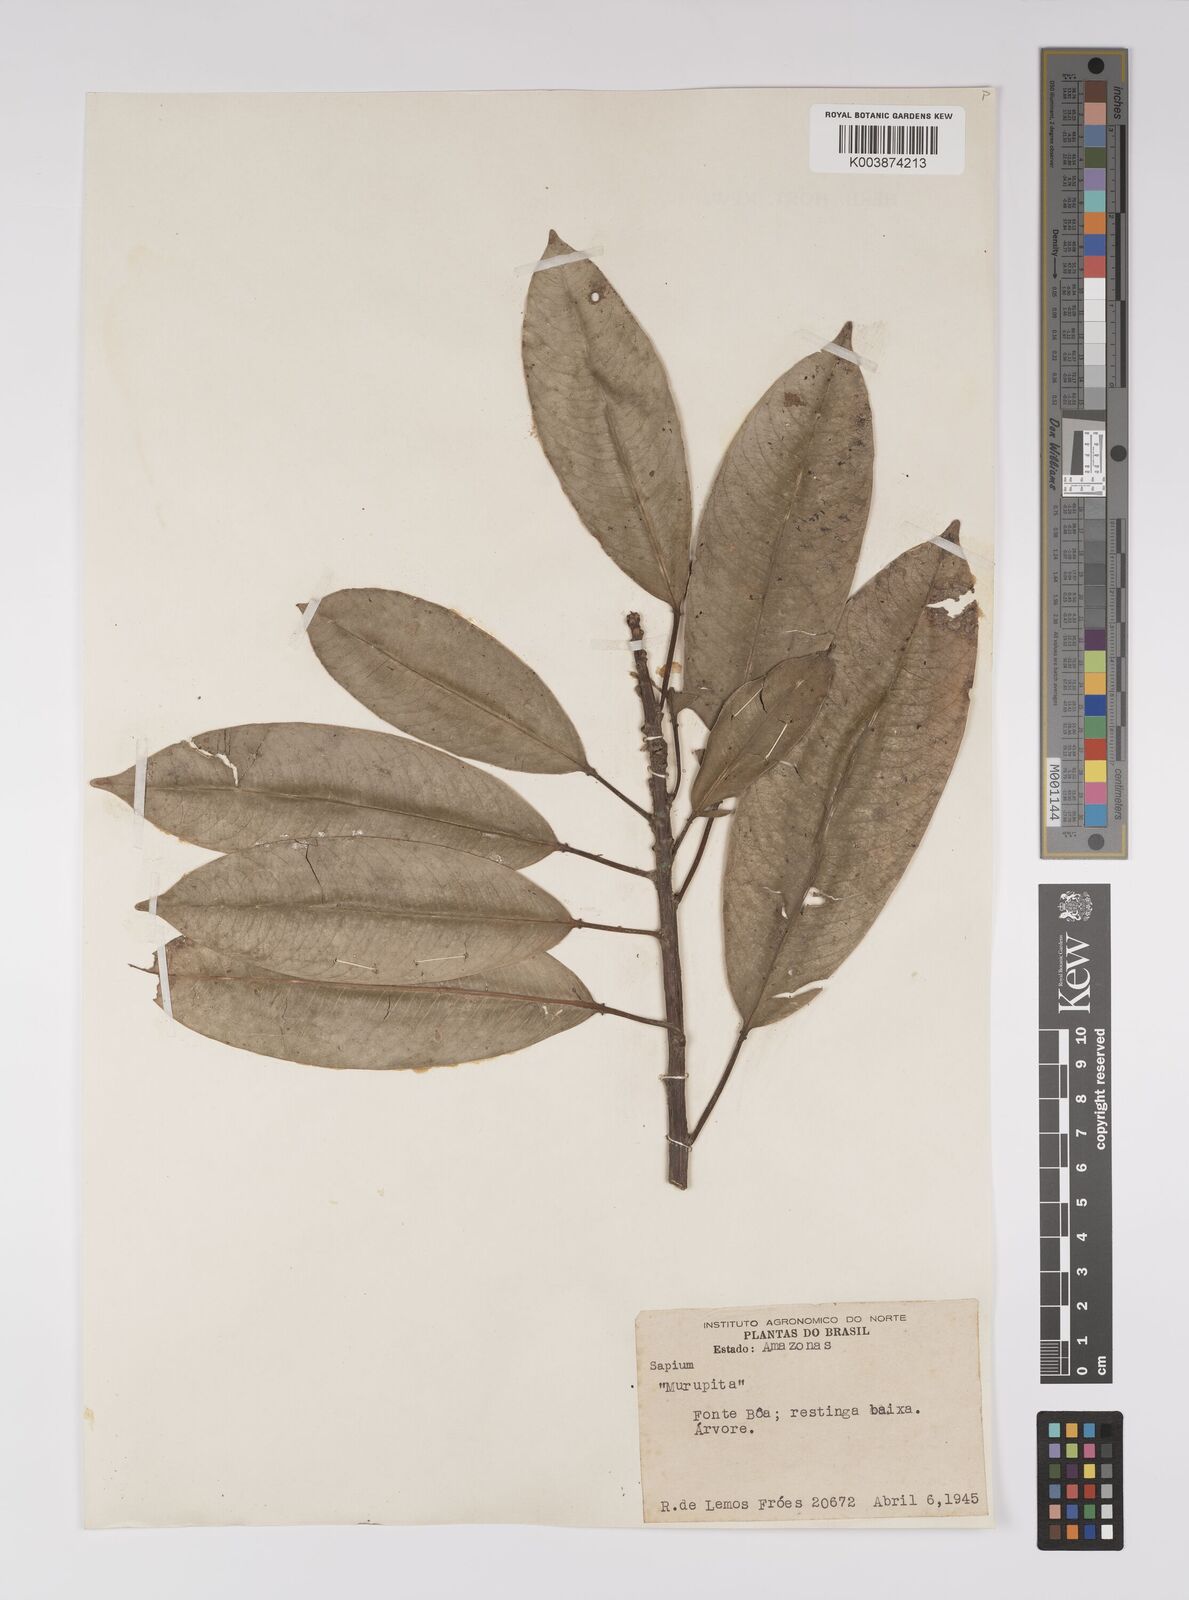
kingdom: Plantae
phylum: Tracheophyta
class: Magnoliopsida
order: Malpighiales
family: Euphorbiaceae
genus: Sapium
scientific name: Sapium
